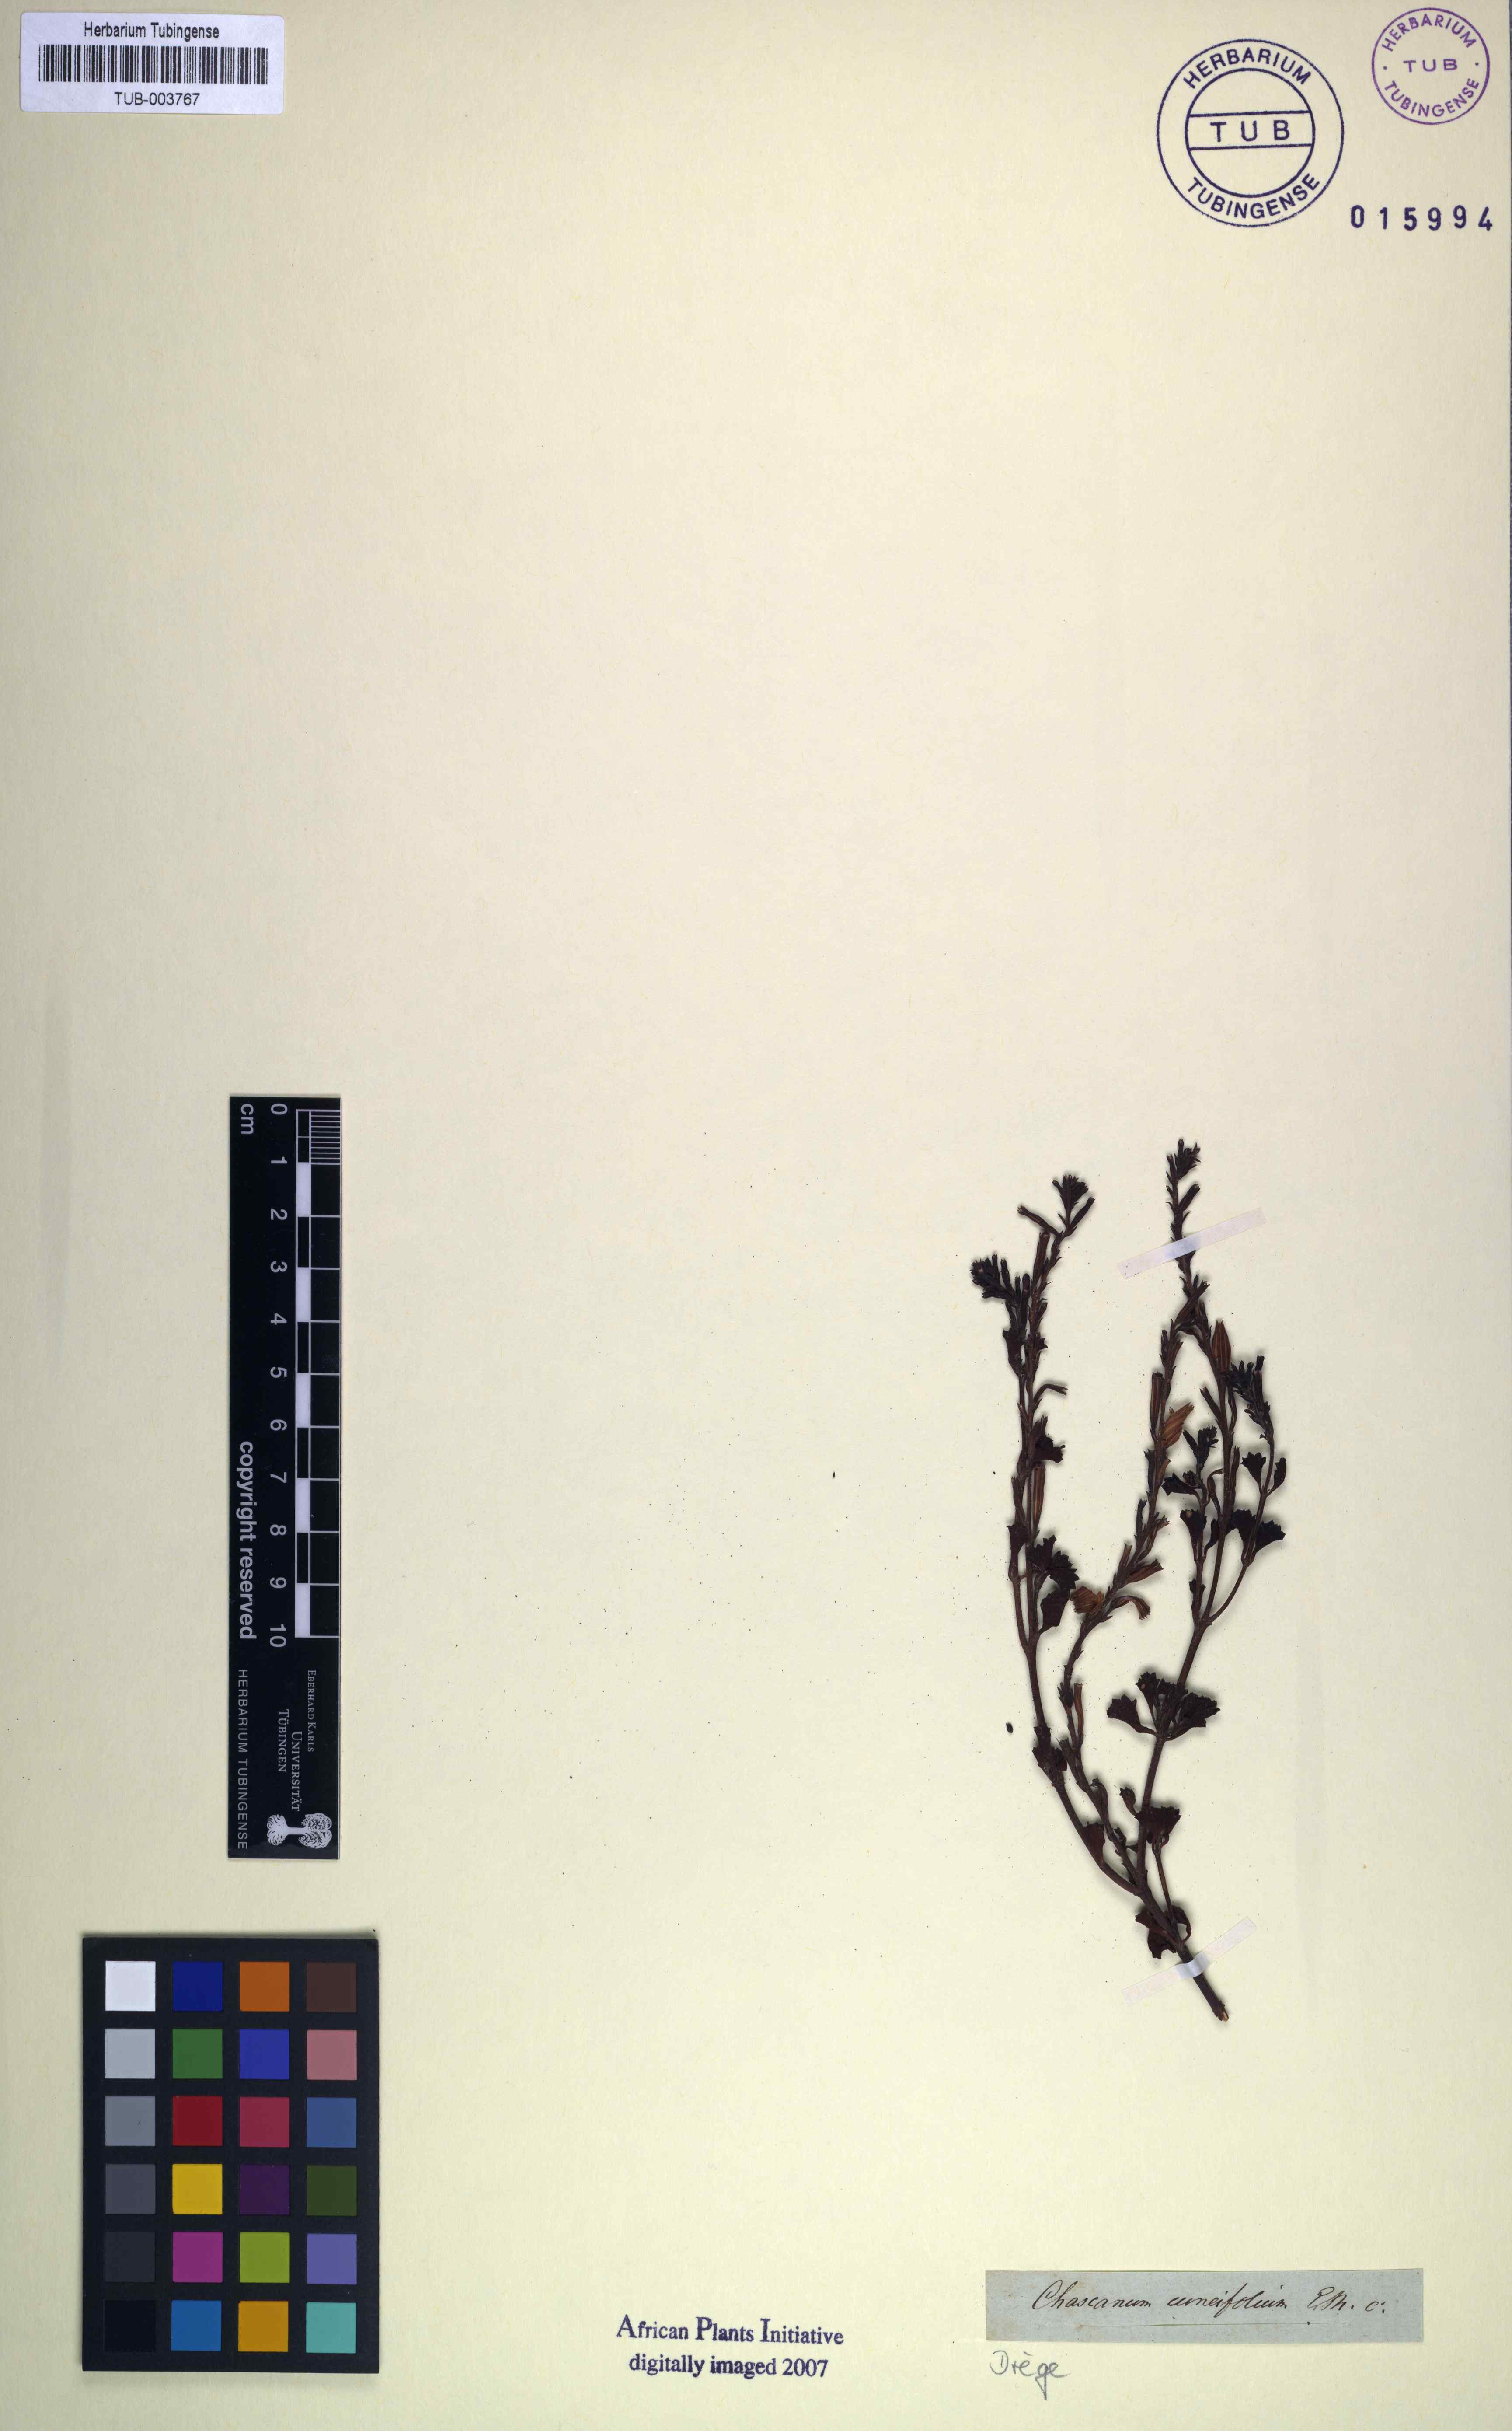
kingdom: Plantae
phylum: Tracheophyta
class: Magnoliopsida
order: Lamiales
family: Verbenaceae
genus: Chascanum
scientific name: Chascanum cuneifolium
